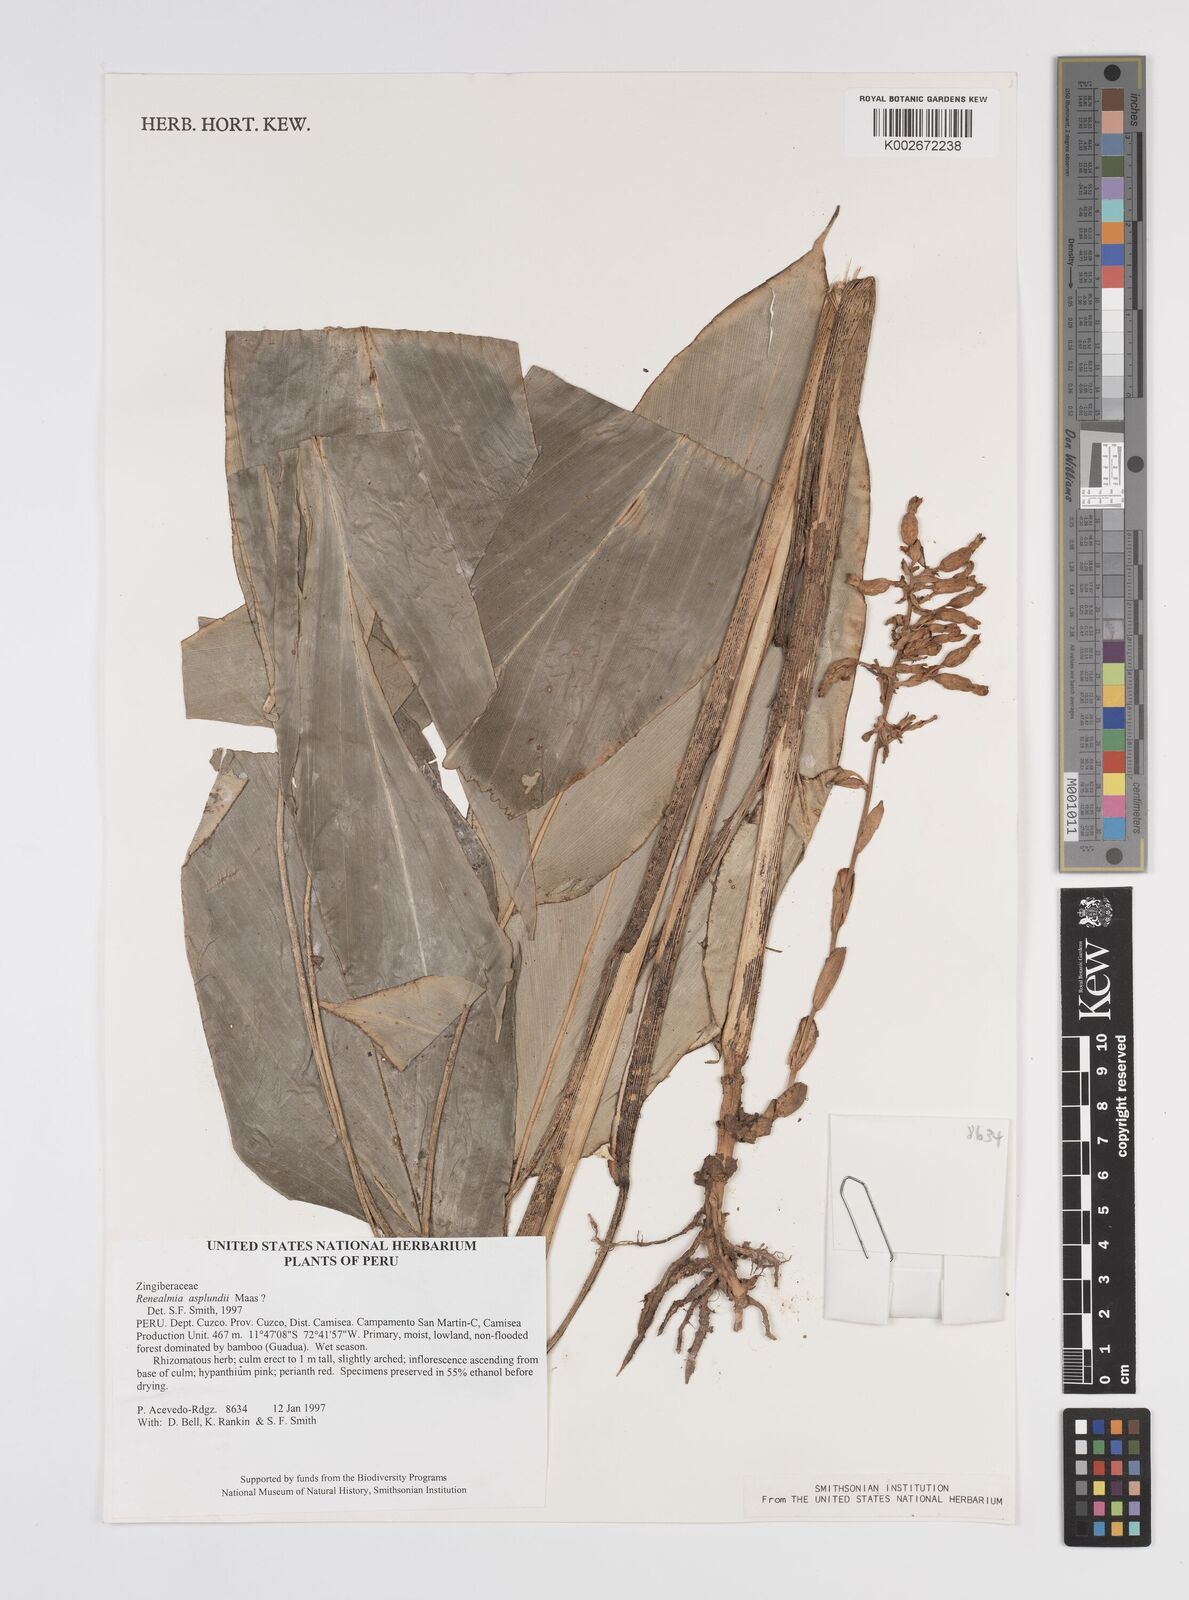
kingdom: Plantae
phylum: Tracheophyta
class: Liliopsida
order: Zingiberales
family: Zingiberaceae
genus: Renealmia
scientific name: Renealmia asplundii
